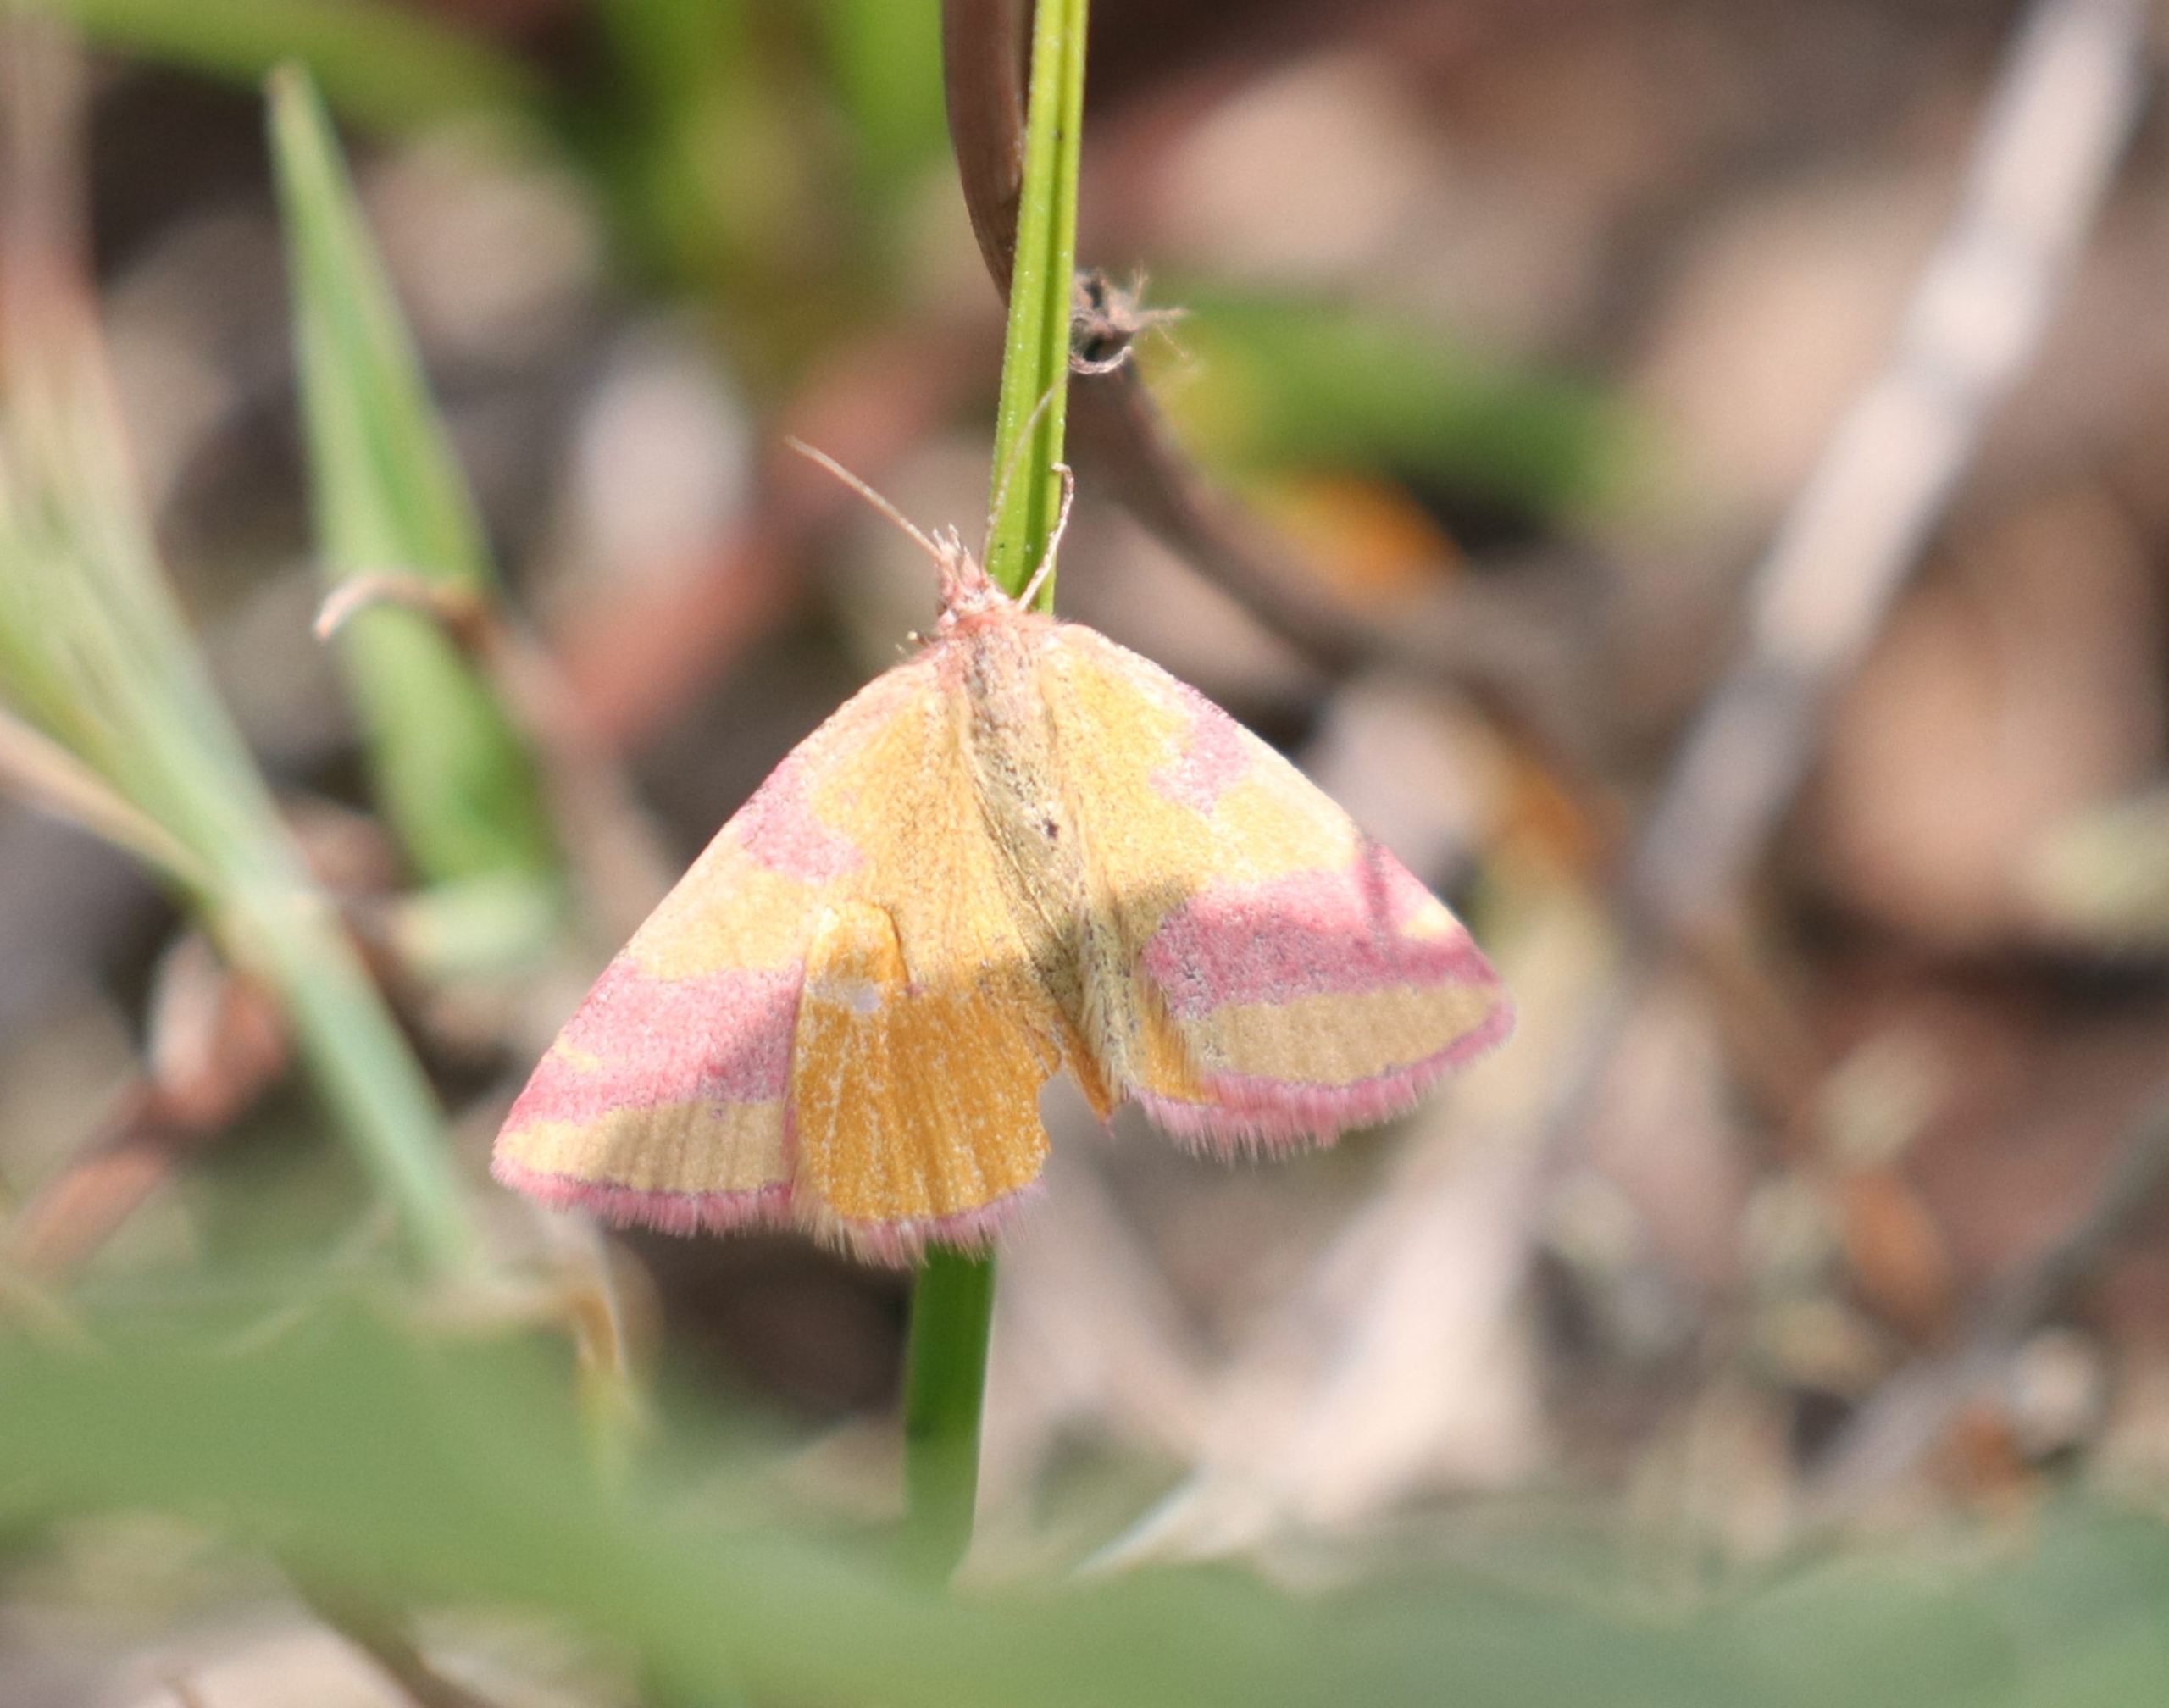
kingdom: Animalia
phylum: Arthropoda
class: Insecta
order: Lepidoptera
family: Geometridae
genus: Lythria
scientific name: Lythria cruentaria
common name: Purpurmåler
